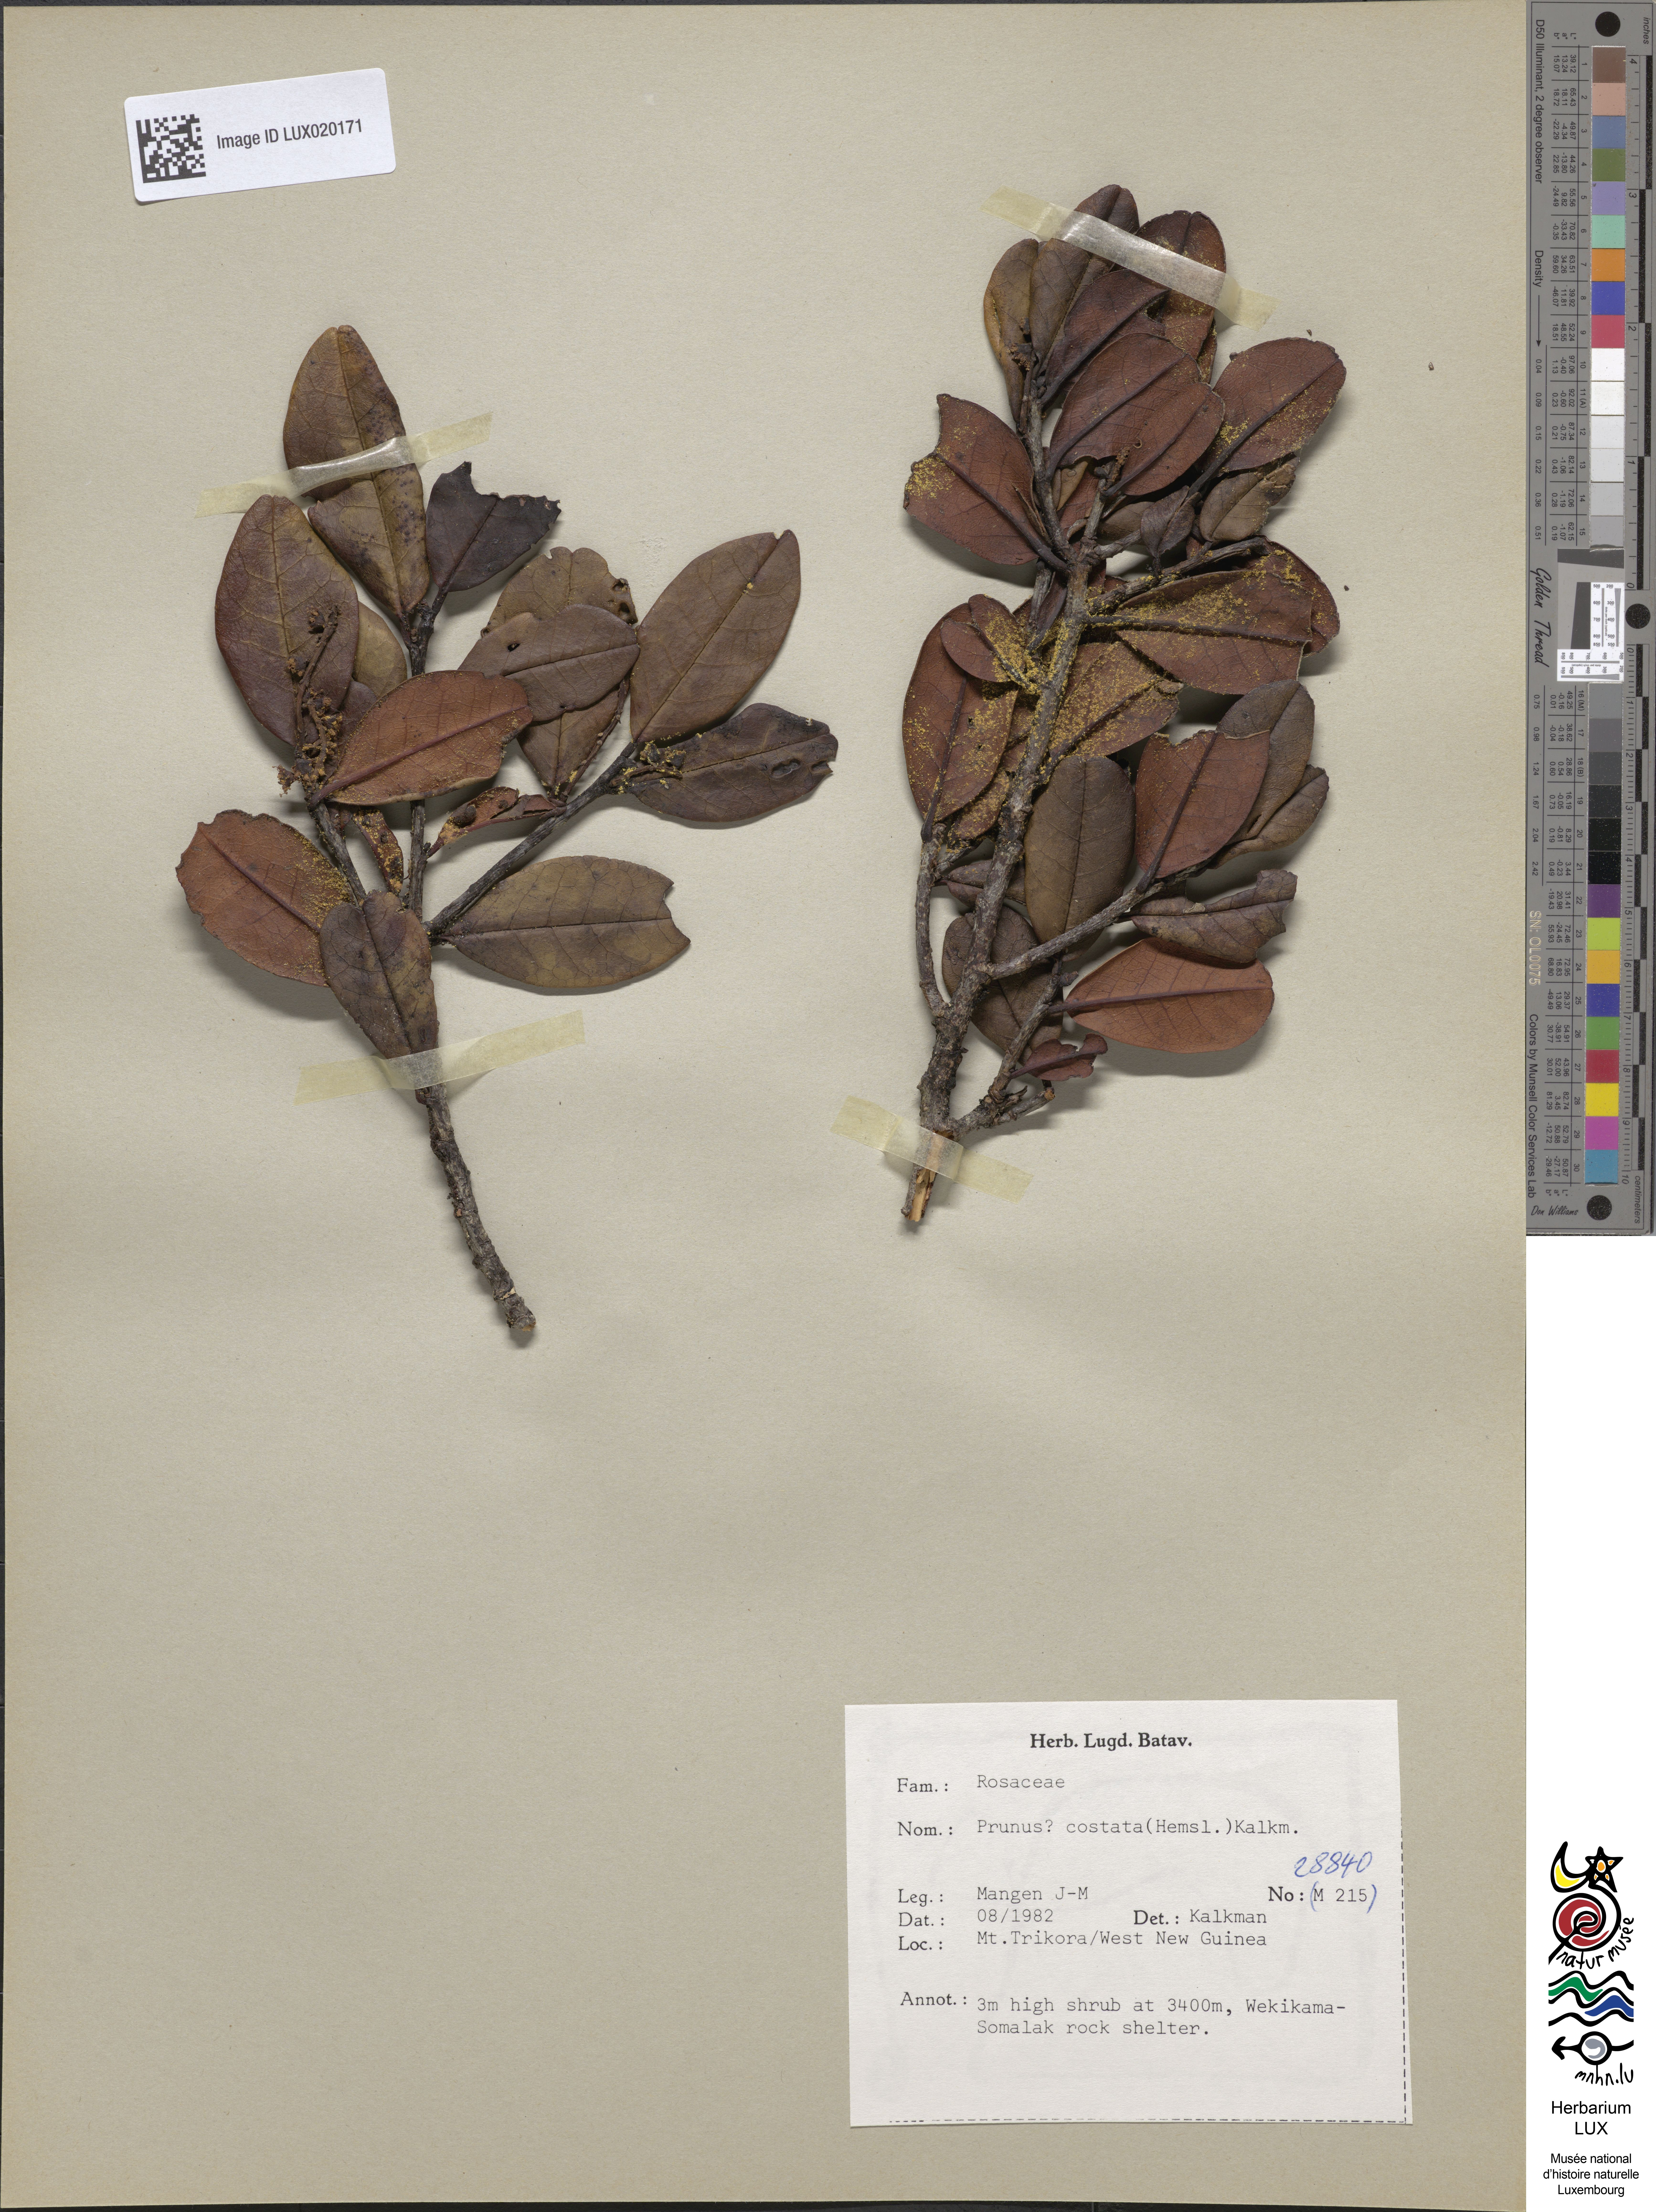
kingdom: Plantae
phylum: Tracheophyta
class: Magnoliopsida
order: Rosales
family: Rosaceae
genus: Prunus
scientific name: Prunus costata
